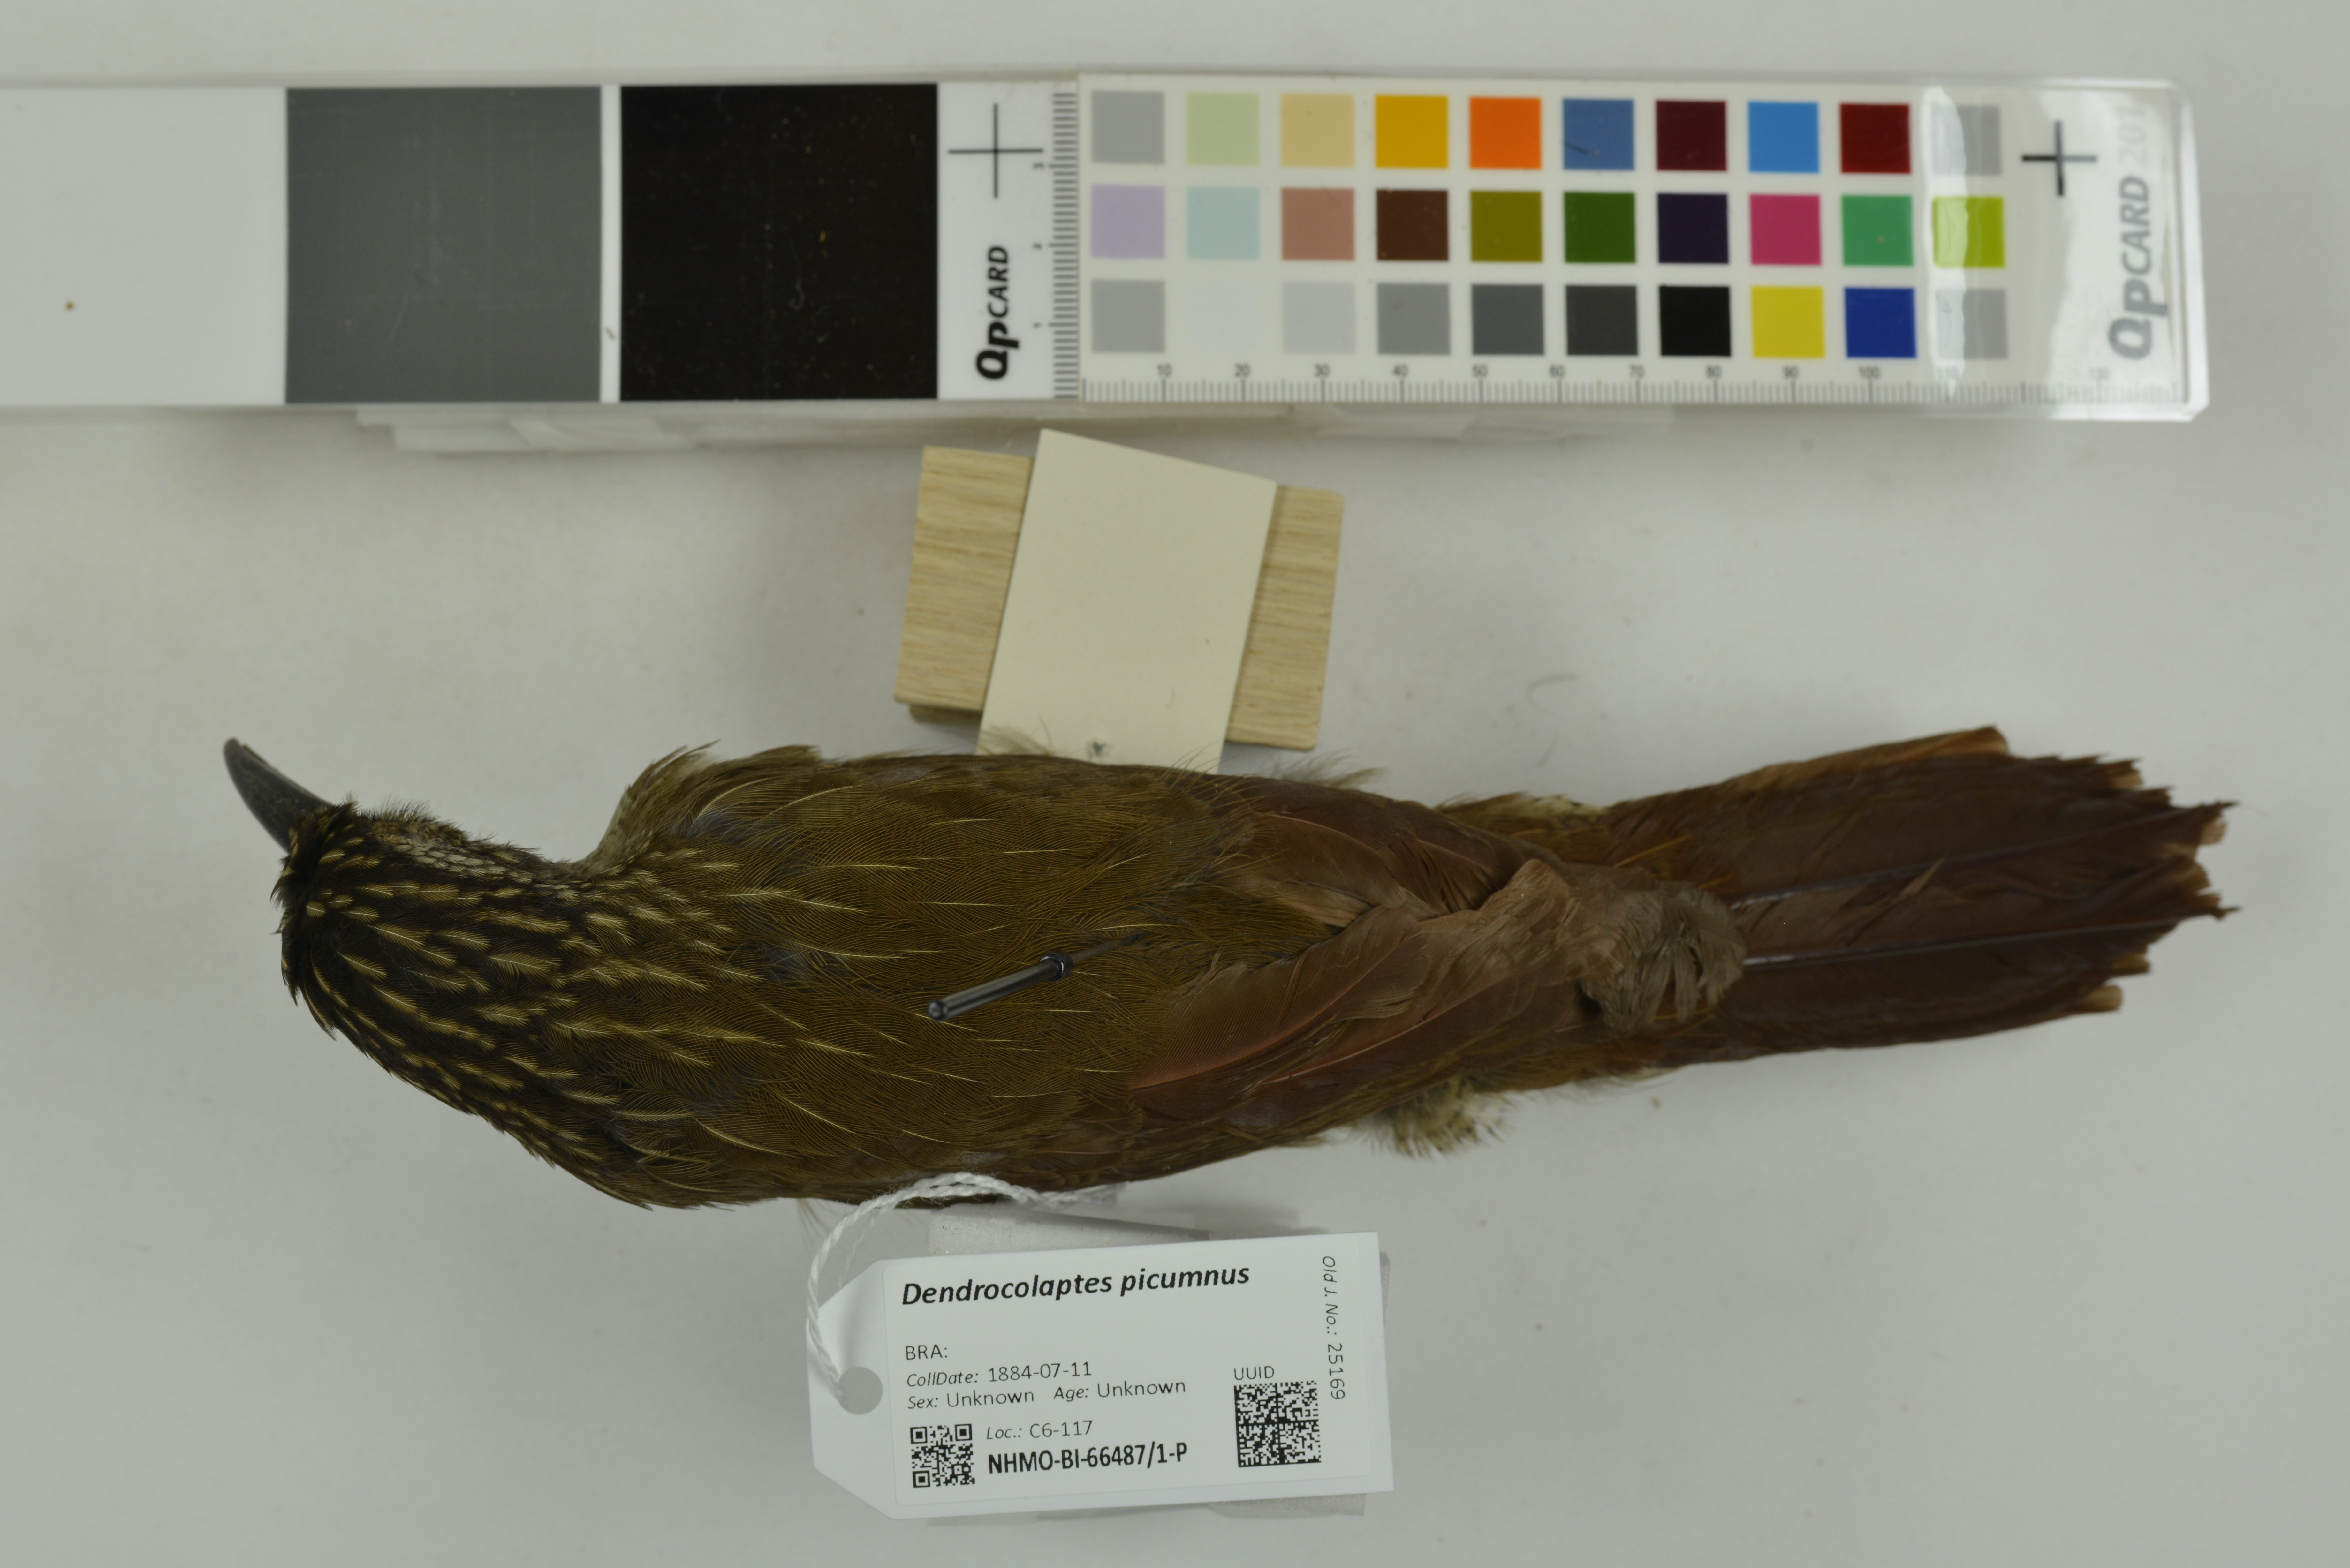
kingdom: Animalia
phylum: Chordata
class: Aves
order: Passeriformes
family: Furnariidae
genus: Dendrocolaptes
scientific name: Dendrocolaptes picumnus
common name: Black-banded woodcreeper
